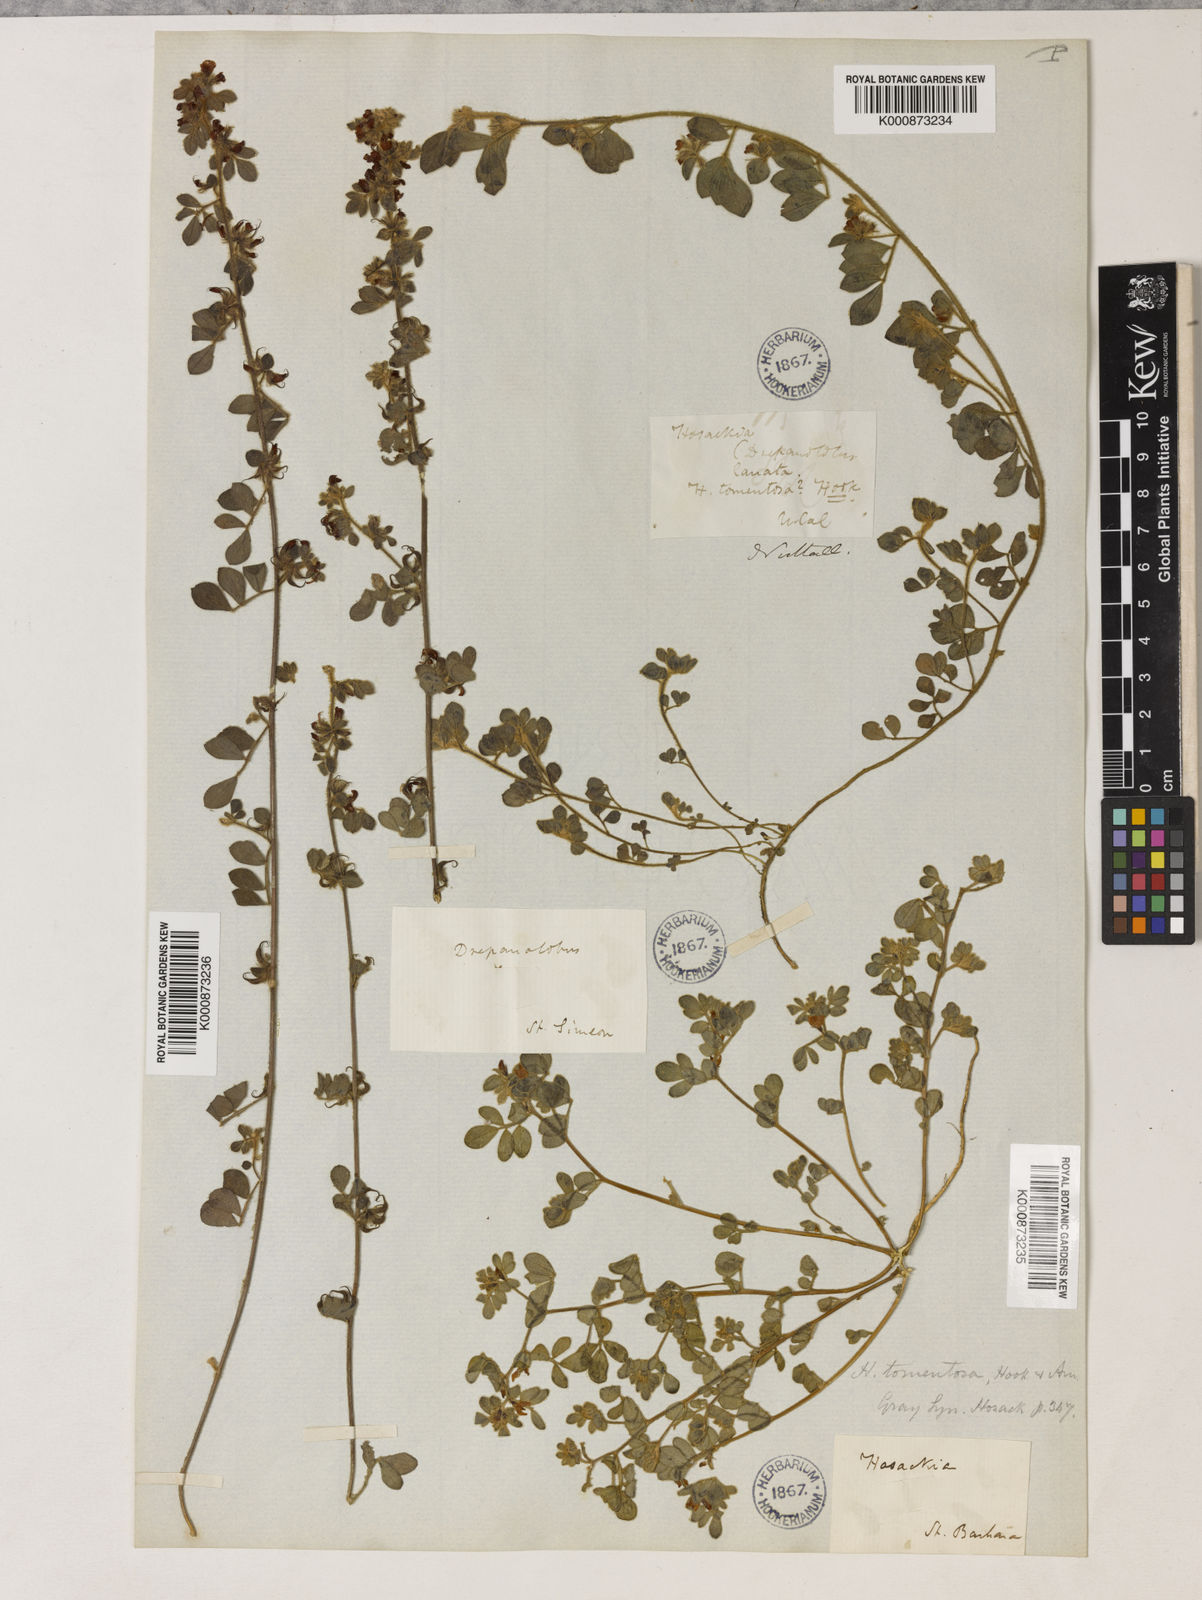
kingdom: Plantae
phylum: Tracheophyta
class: Magnoliopsida
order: Fabales
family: Fabaceae
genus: Acmispon
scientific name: Acmispon tomentosus
